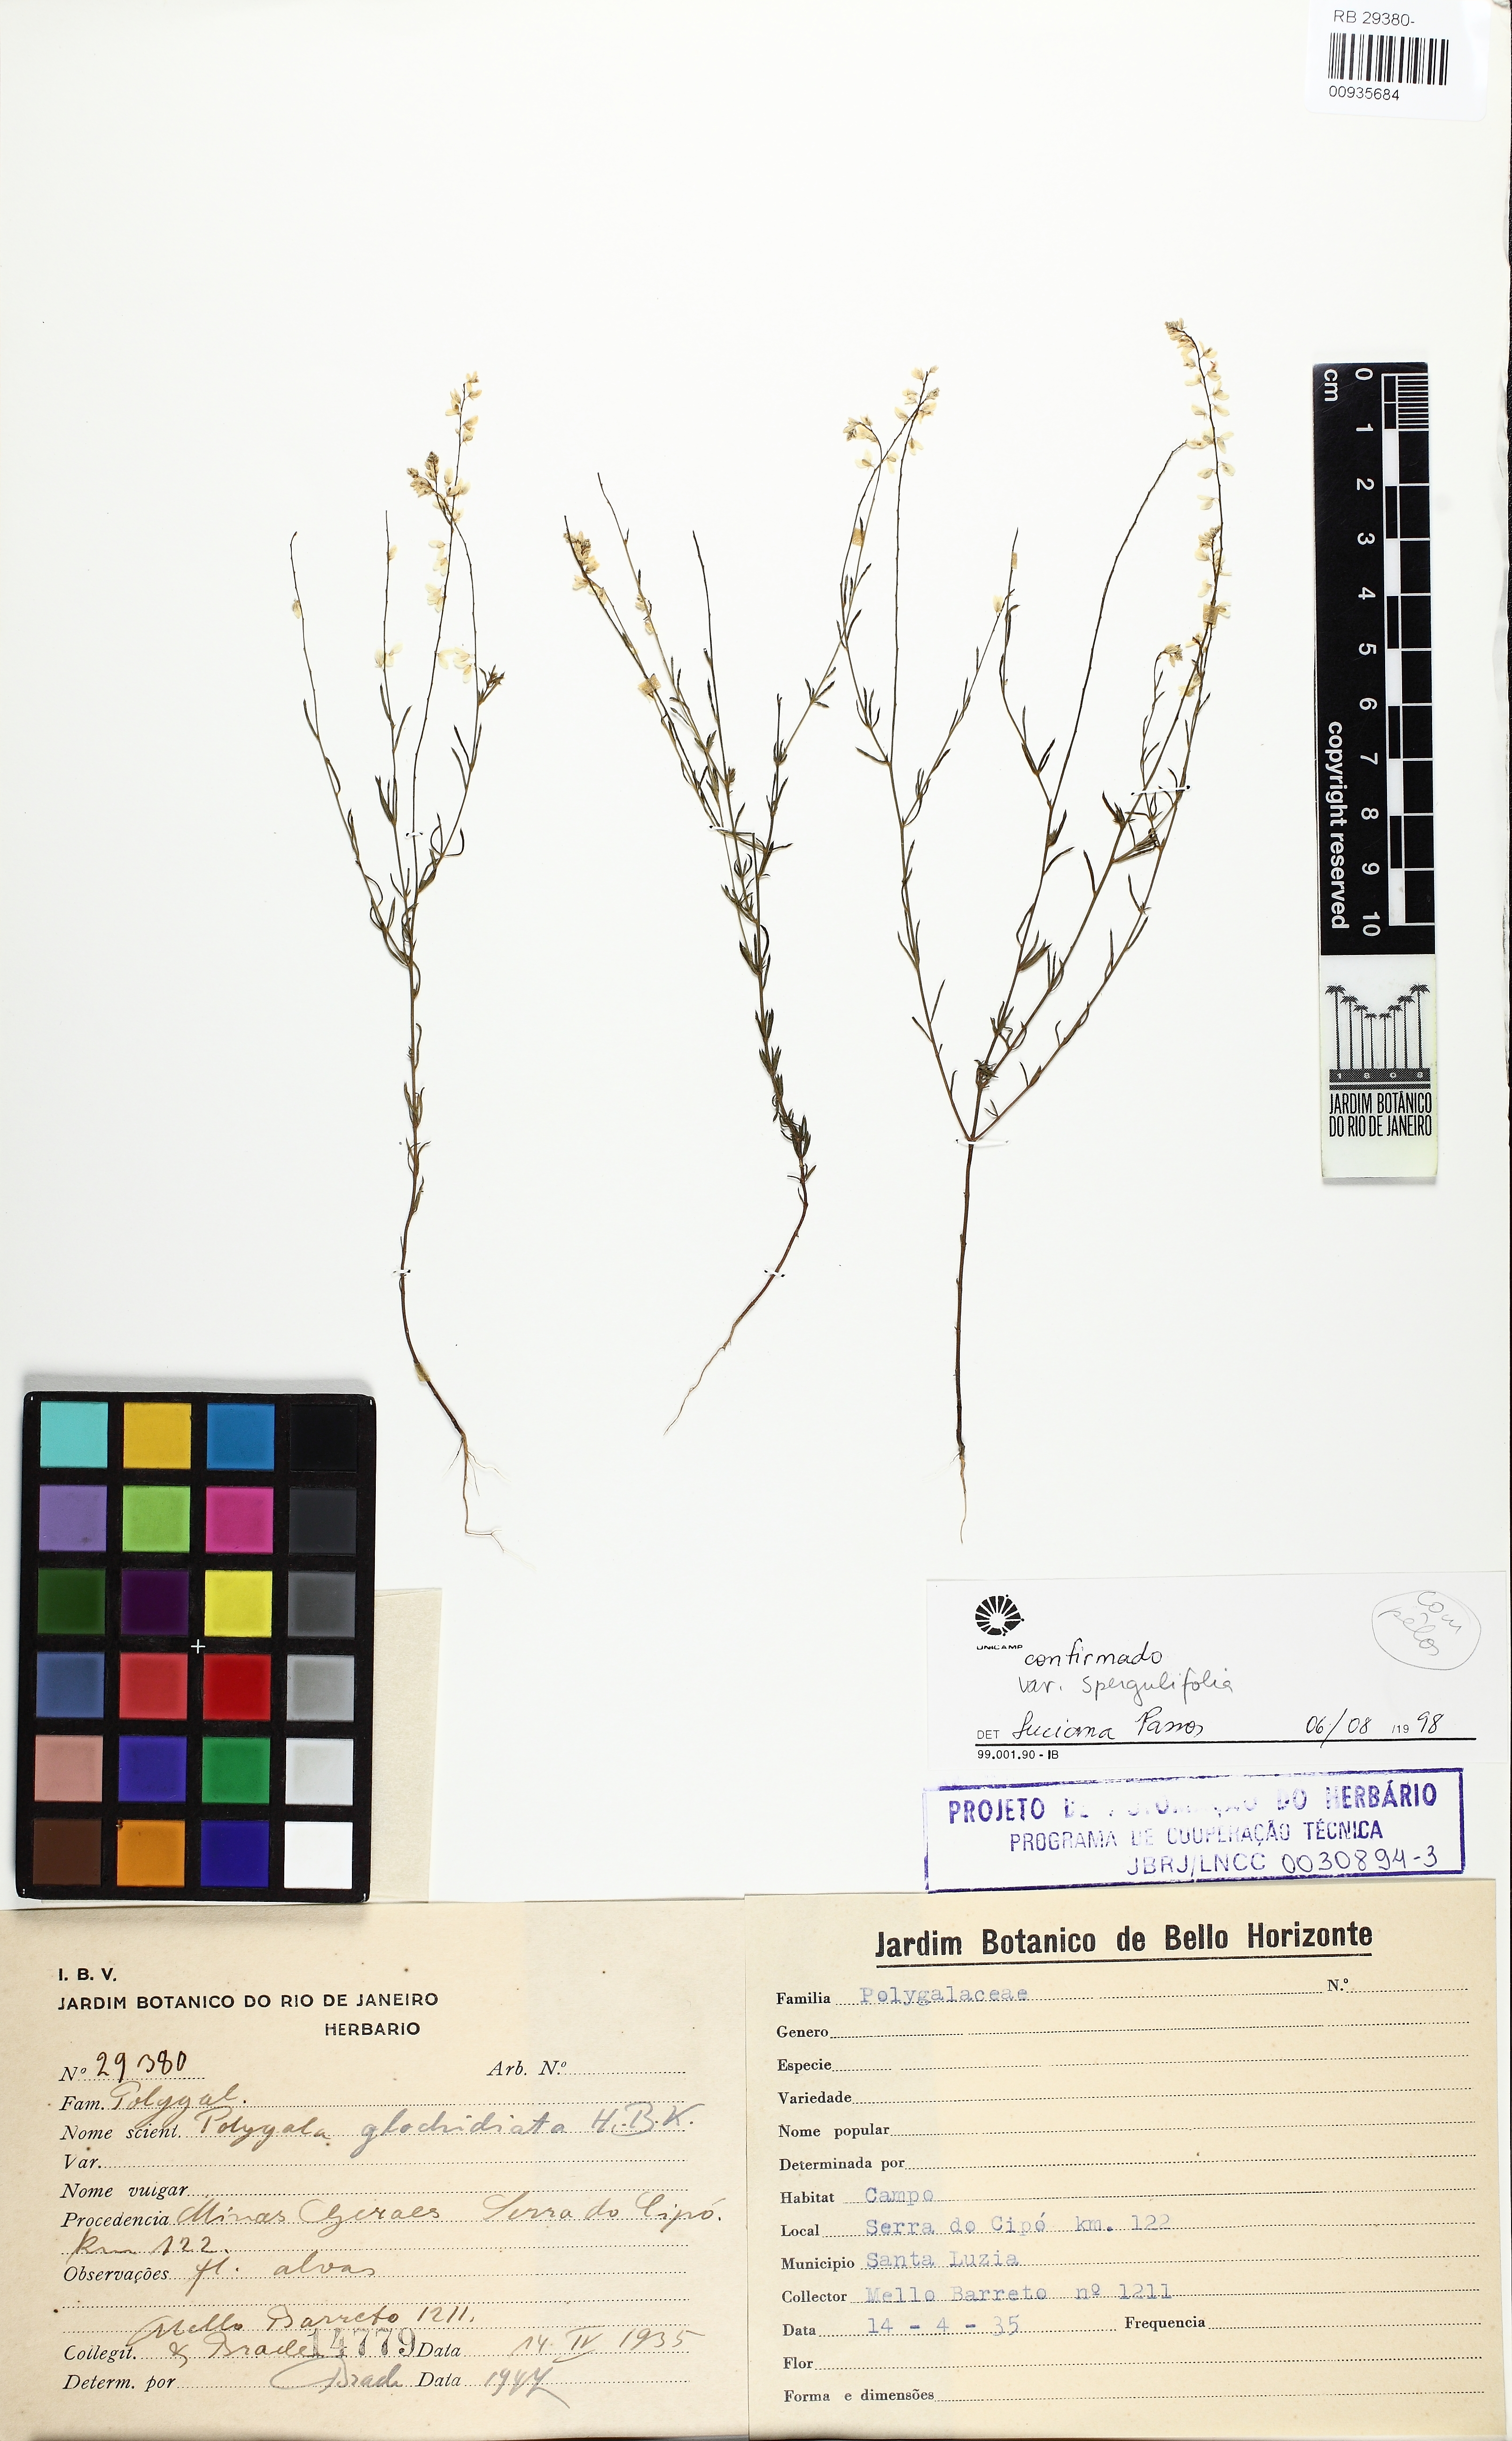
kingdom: Plantae
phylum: Tracheophyta
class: Magnoliopsida
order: Fabales
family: Polygalaceae
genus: Polygala
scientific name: Polygala glochidiata
